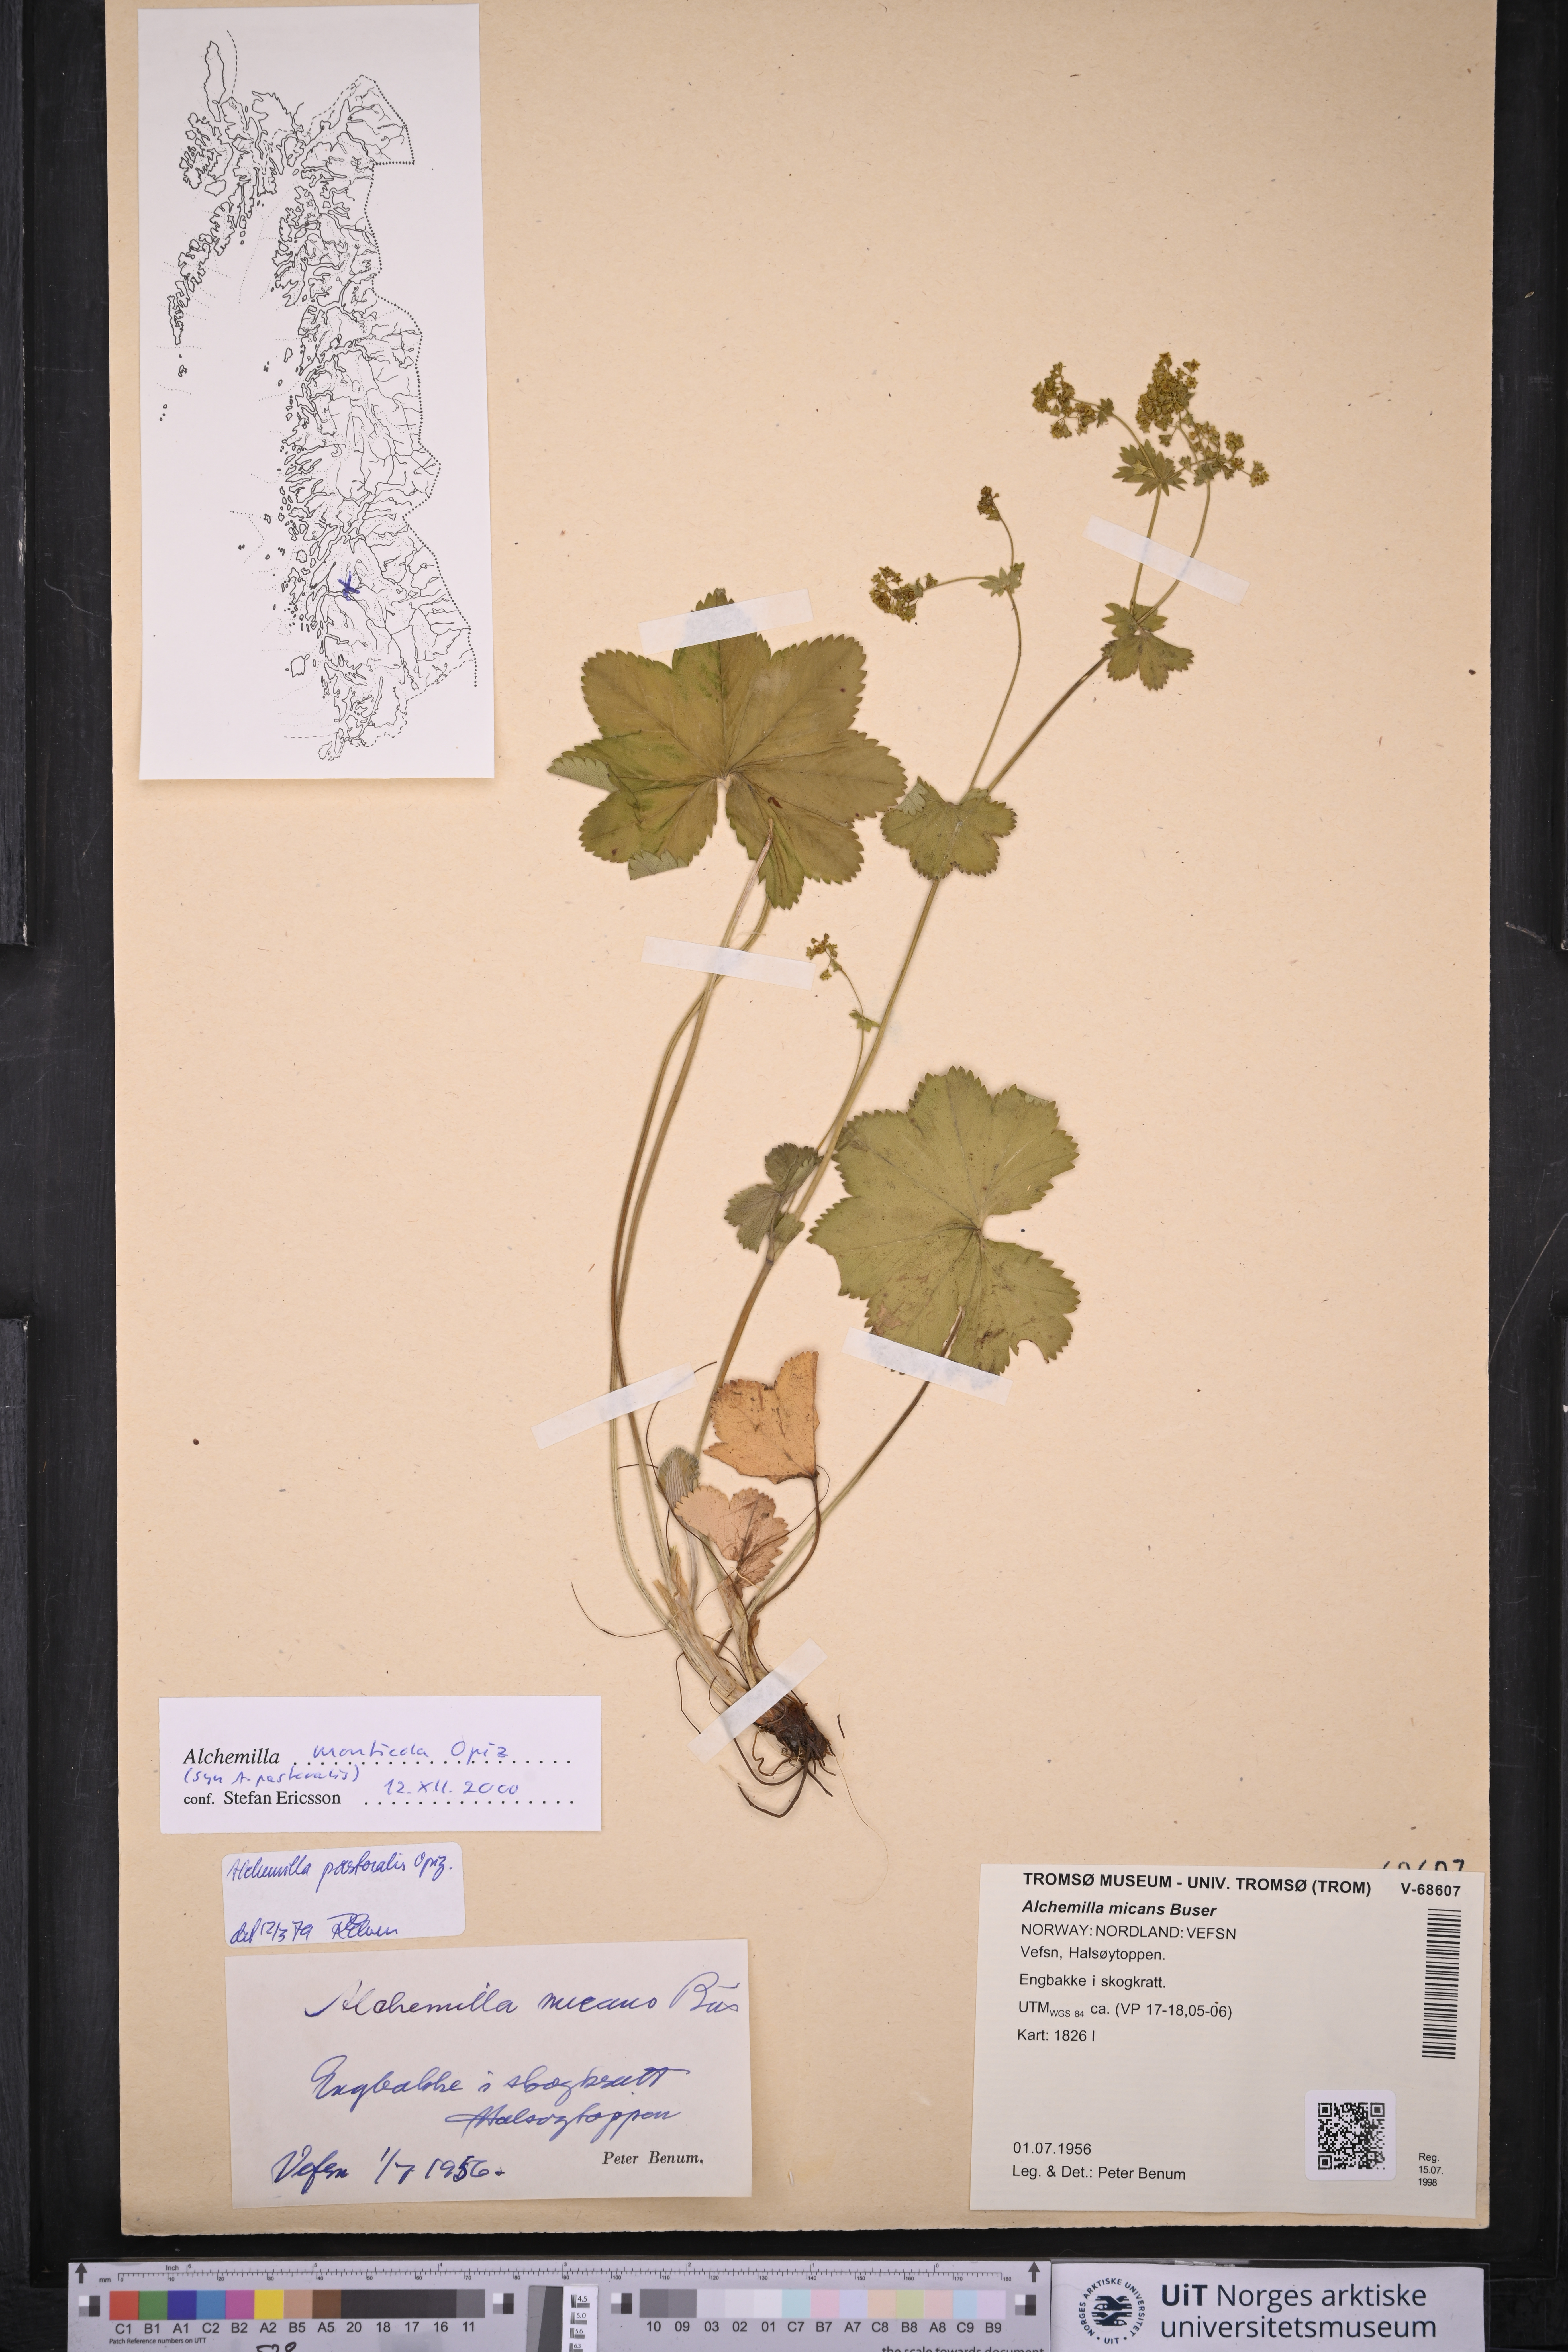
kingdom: Plantae
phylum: Tracheophyta
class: Magnoliopsida
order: Rosales
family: Rosaceae
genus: Alchemilla
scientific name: Alchemilla monticola
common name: Hairy lady's mantle
